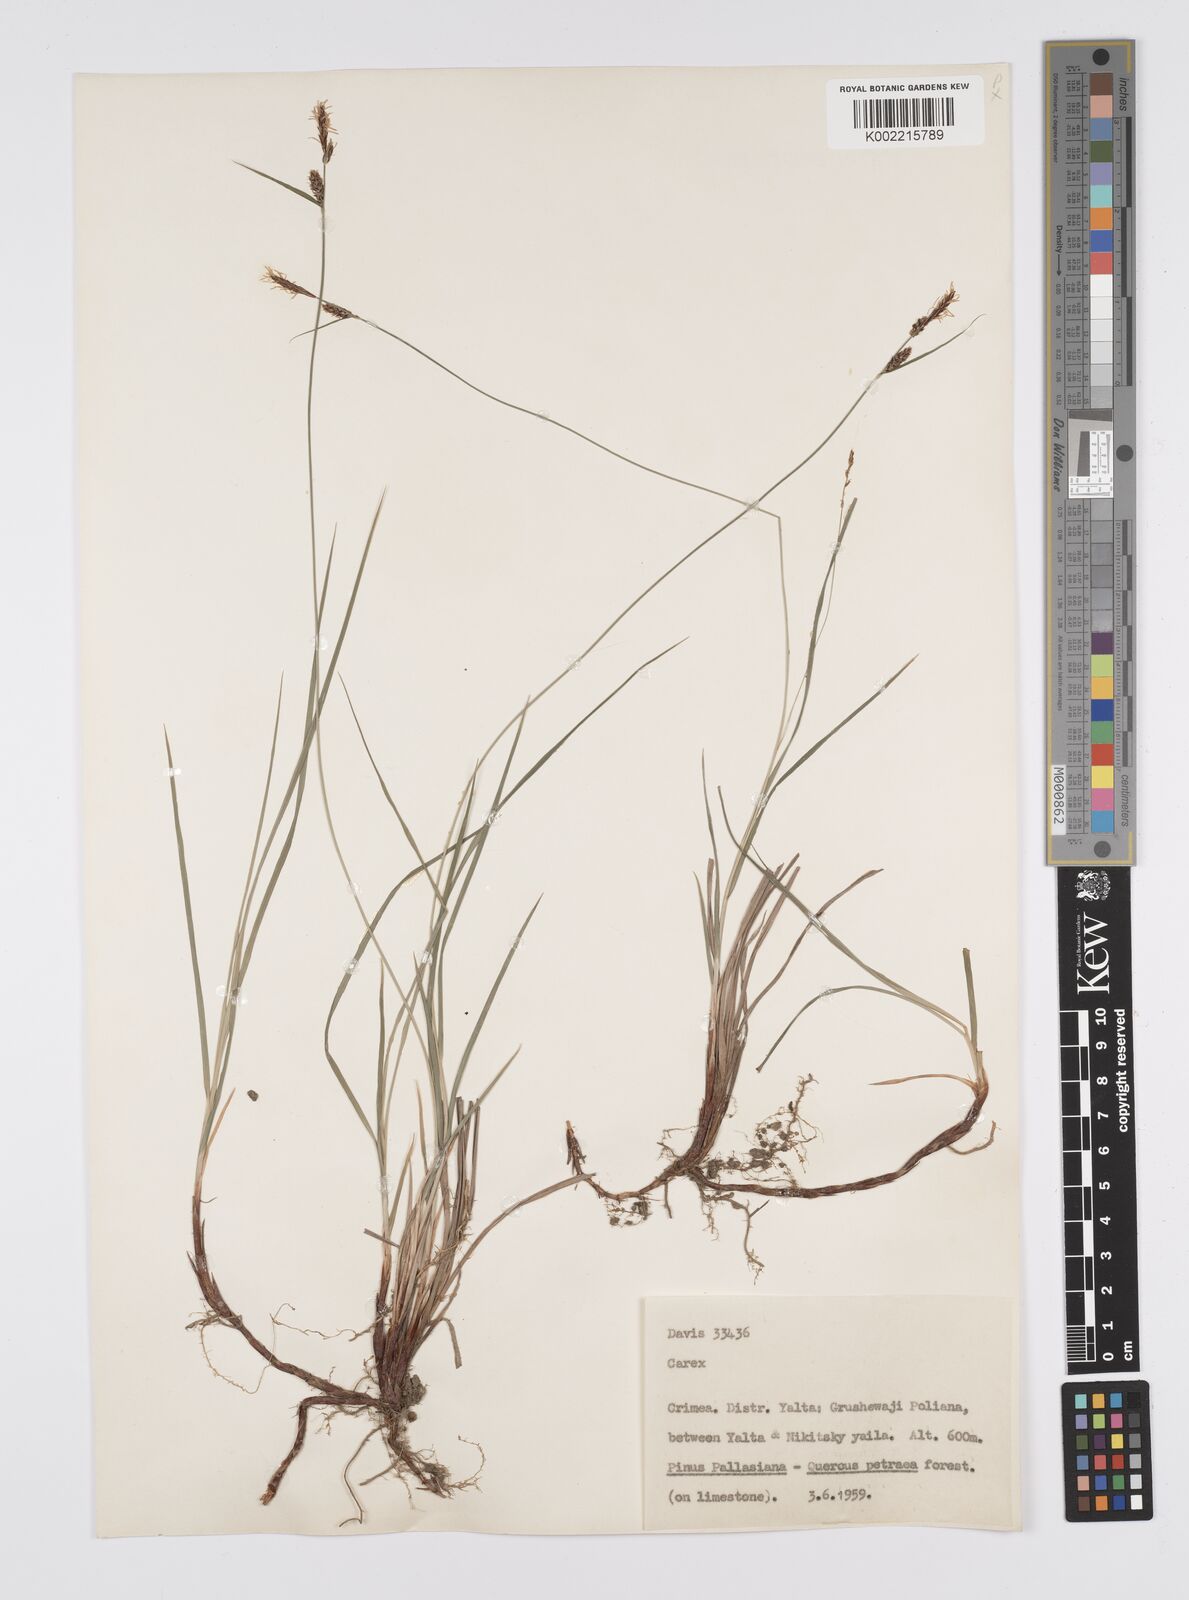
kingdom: Plantae
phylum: Tracheophyta
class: Liliopsida
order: Poales
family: Cyperaceae
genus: Carex
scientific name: Carex
